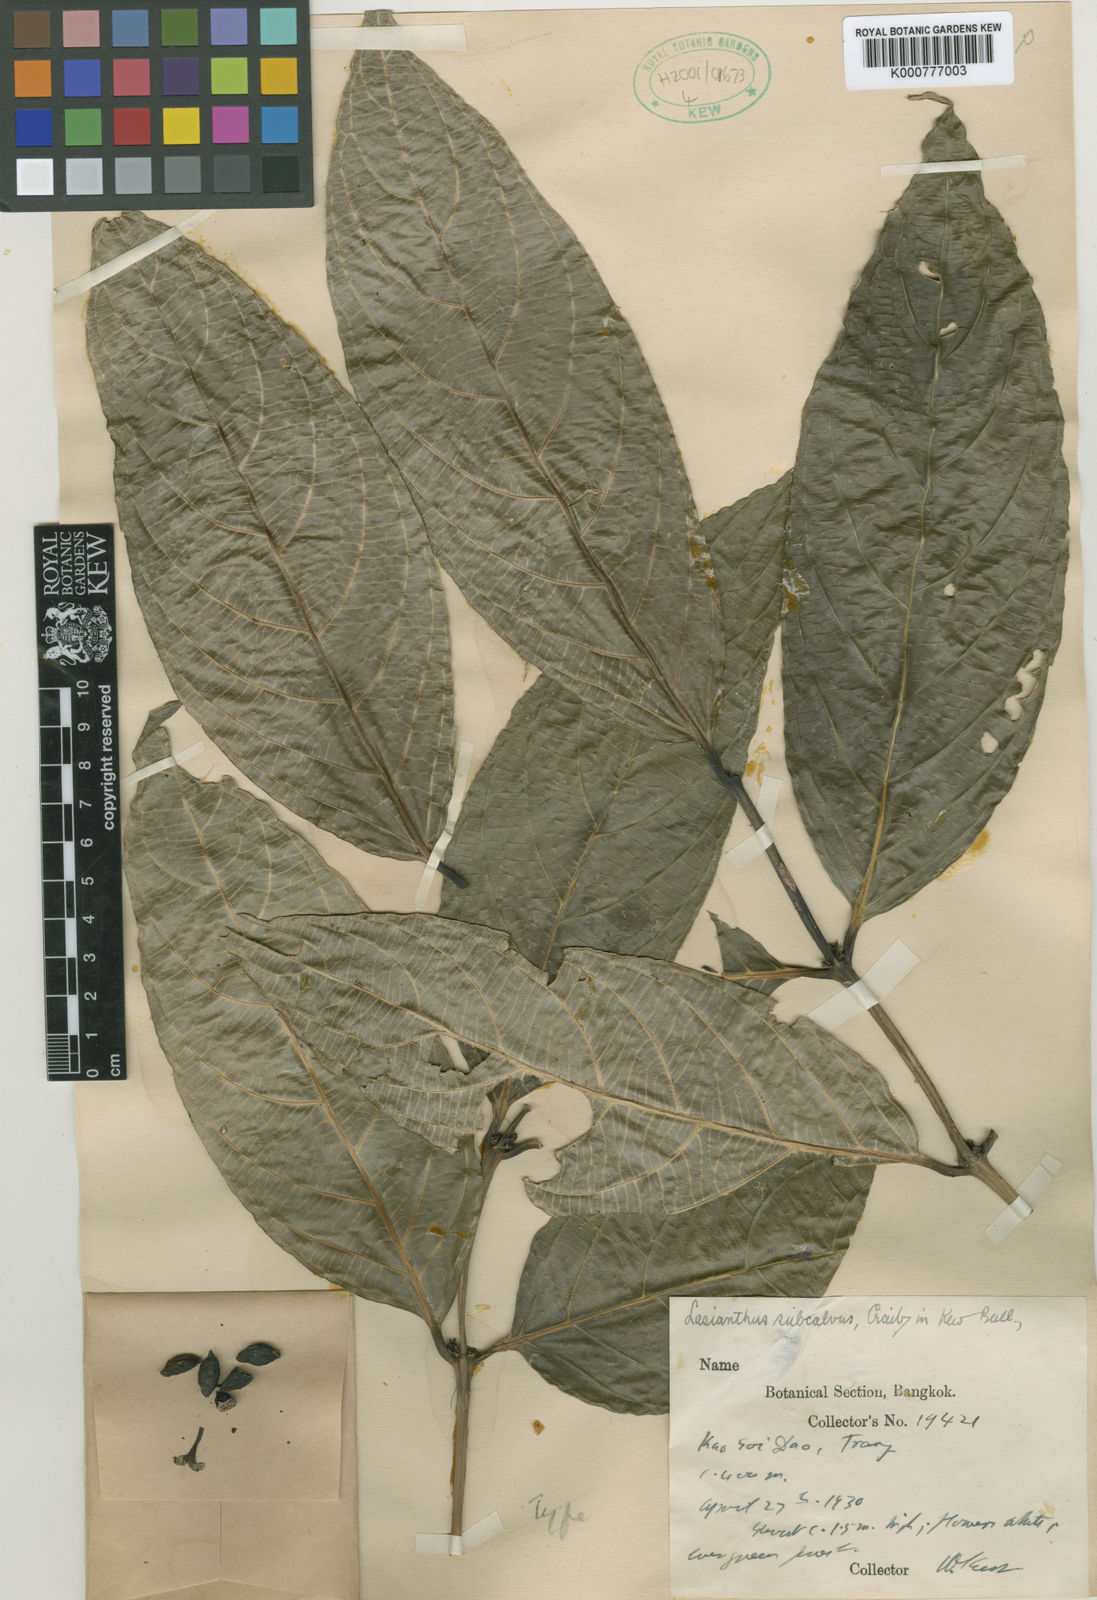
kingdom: Plantae
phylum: Tracheophyta
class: Magnoliopsida
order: Gentianales
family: Rubiaceae
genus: Lasianthus
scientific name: Lasianthus subcalvus
